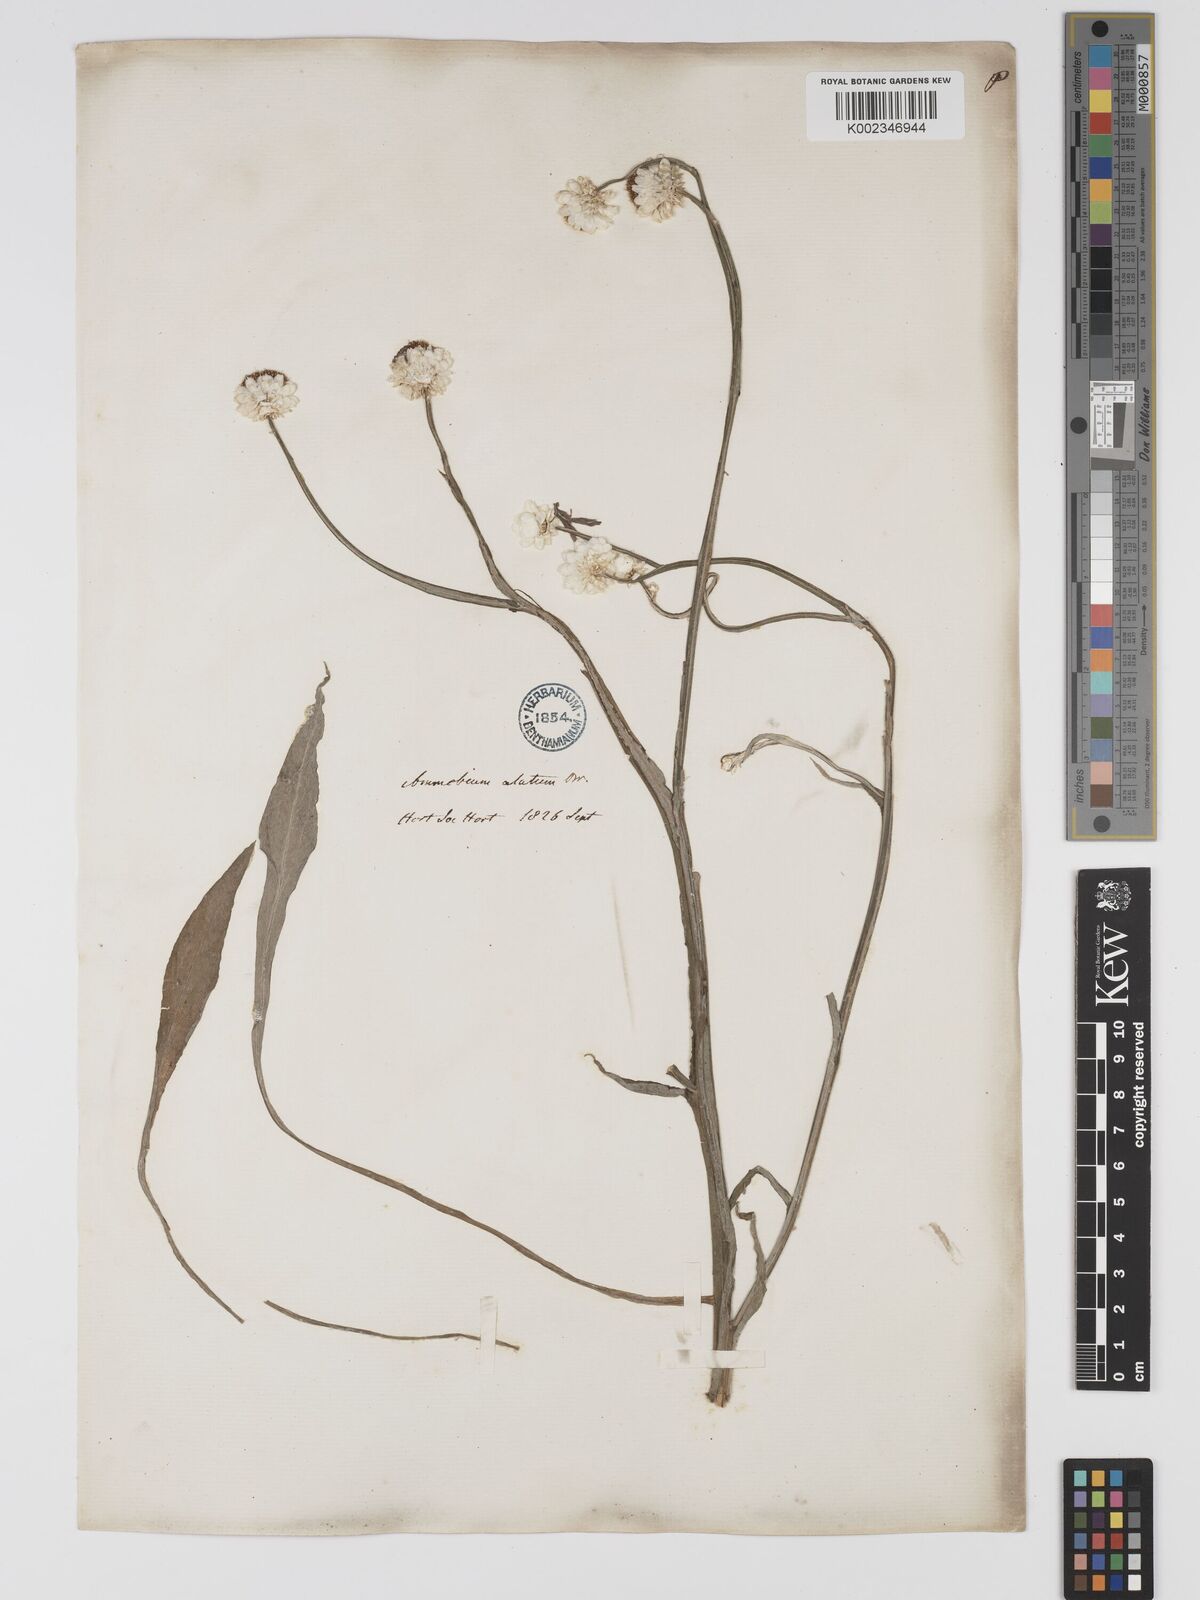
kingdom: Plantae
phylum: Tracheophyta
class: Magnoliopsida
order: Asterales
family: Asteraceae
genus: Ammobium
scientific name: Ammobium alatum
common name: Winged everlasting
